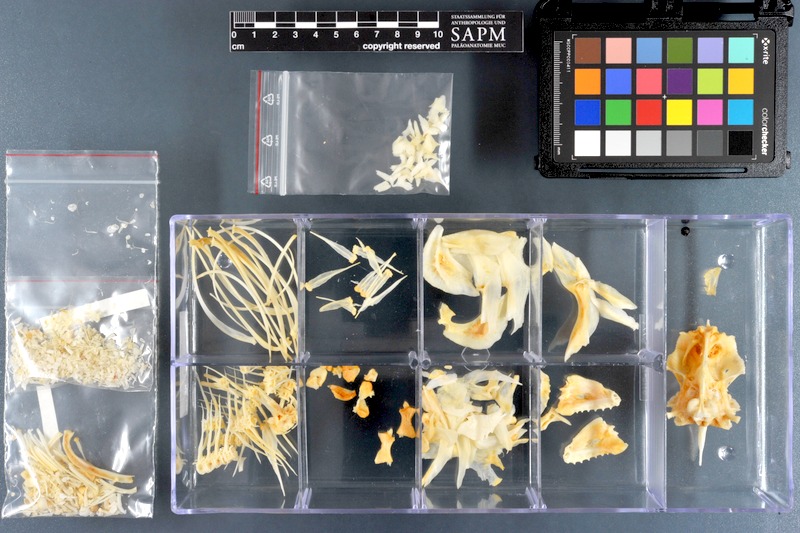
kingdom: Animalia
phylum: Chordata
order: Characiformes
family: Serrasalmidae
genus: Pygocentrus
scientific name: Pygocentrus nattereri
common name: Piranha
